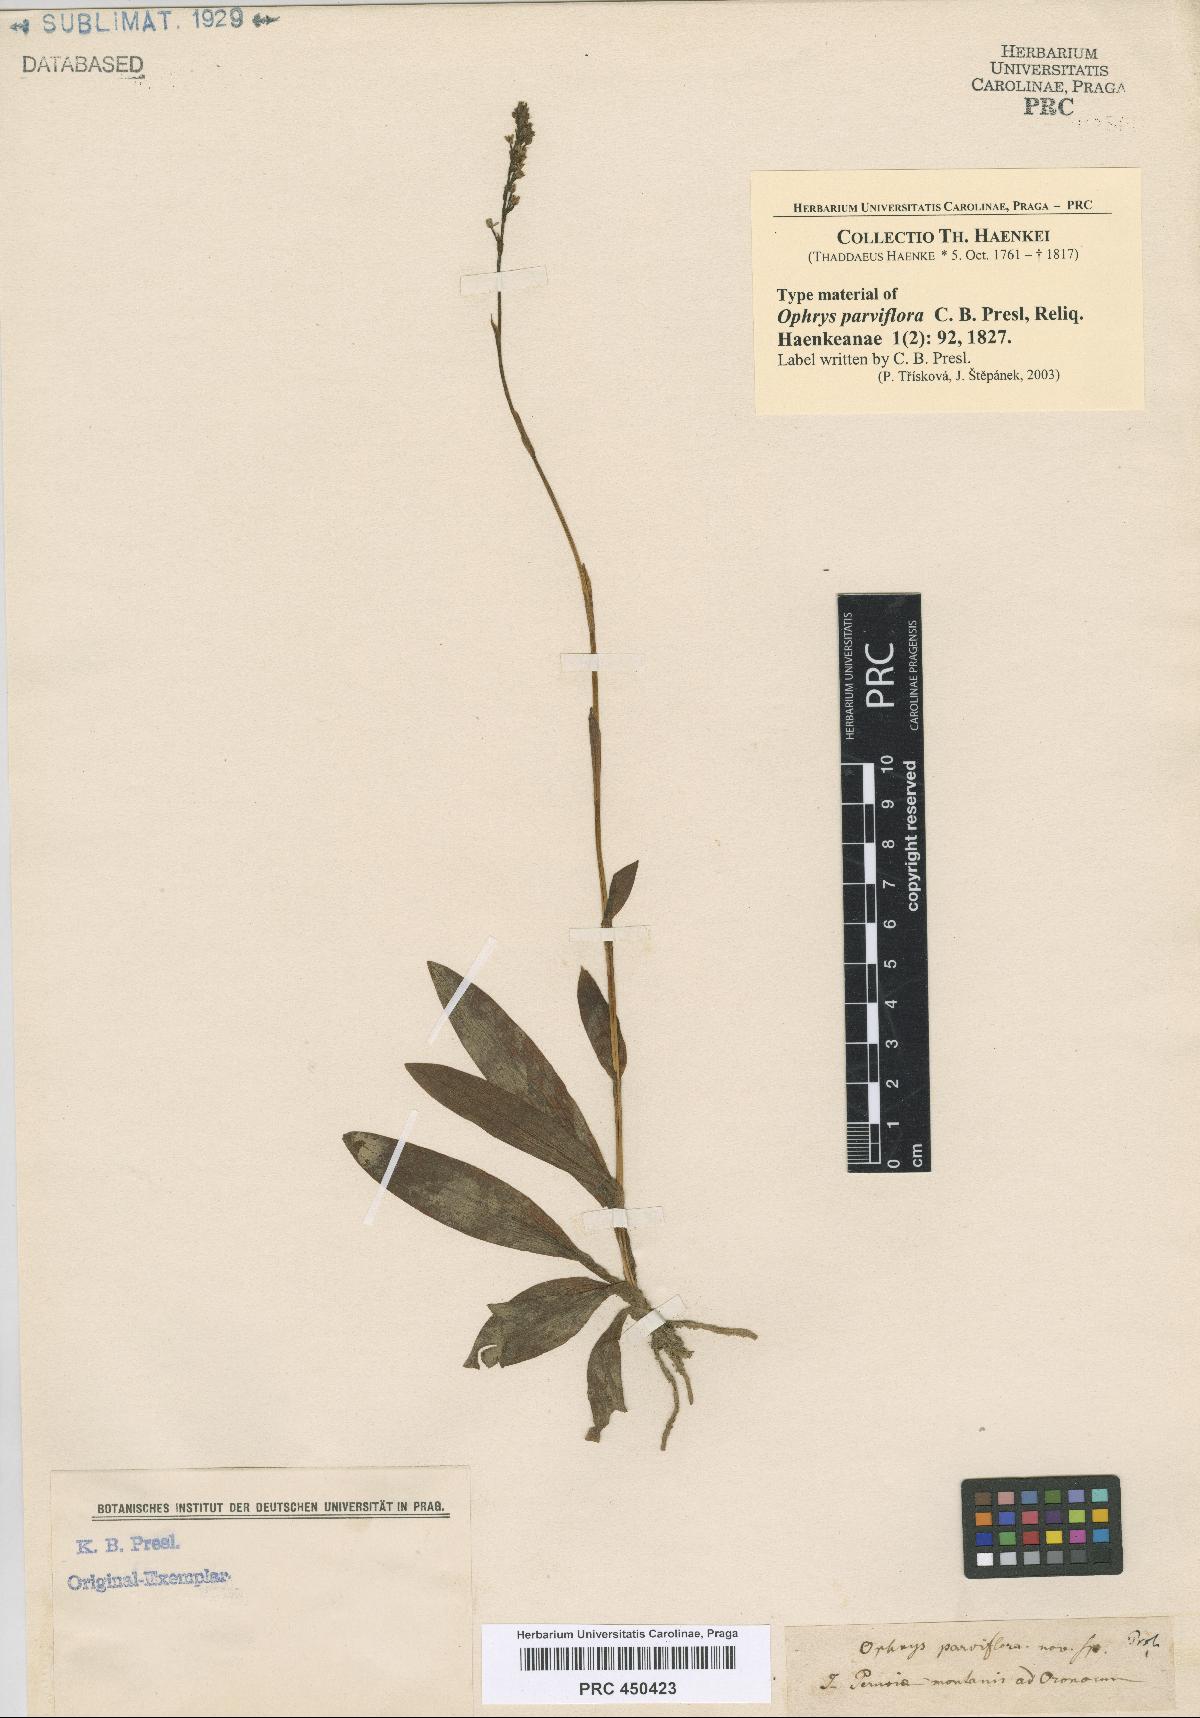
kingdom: Plantae
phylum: Tracheophyta
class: Liliopsida
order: Asparagales
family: Orchidaceae
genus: Ponthieva
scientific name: Ponthieva fertilis
